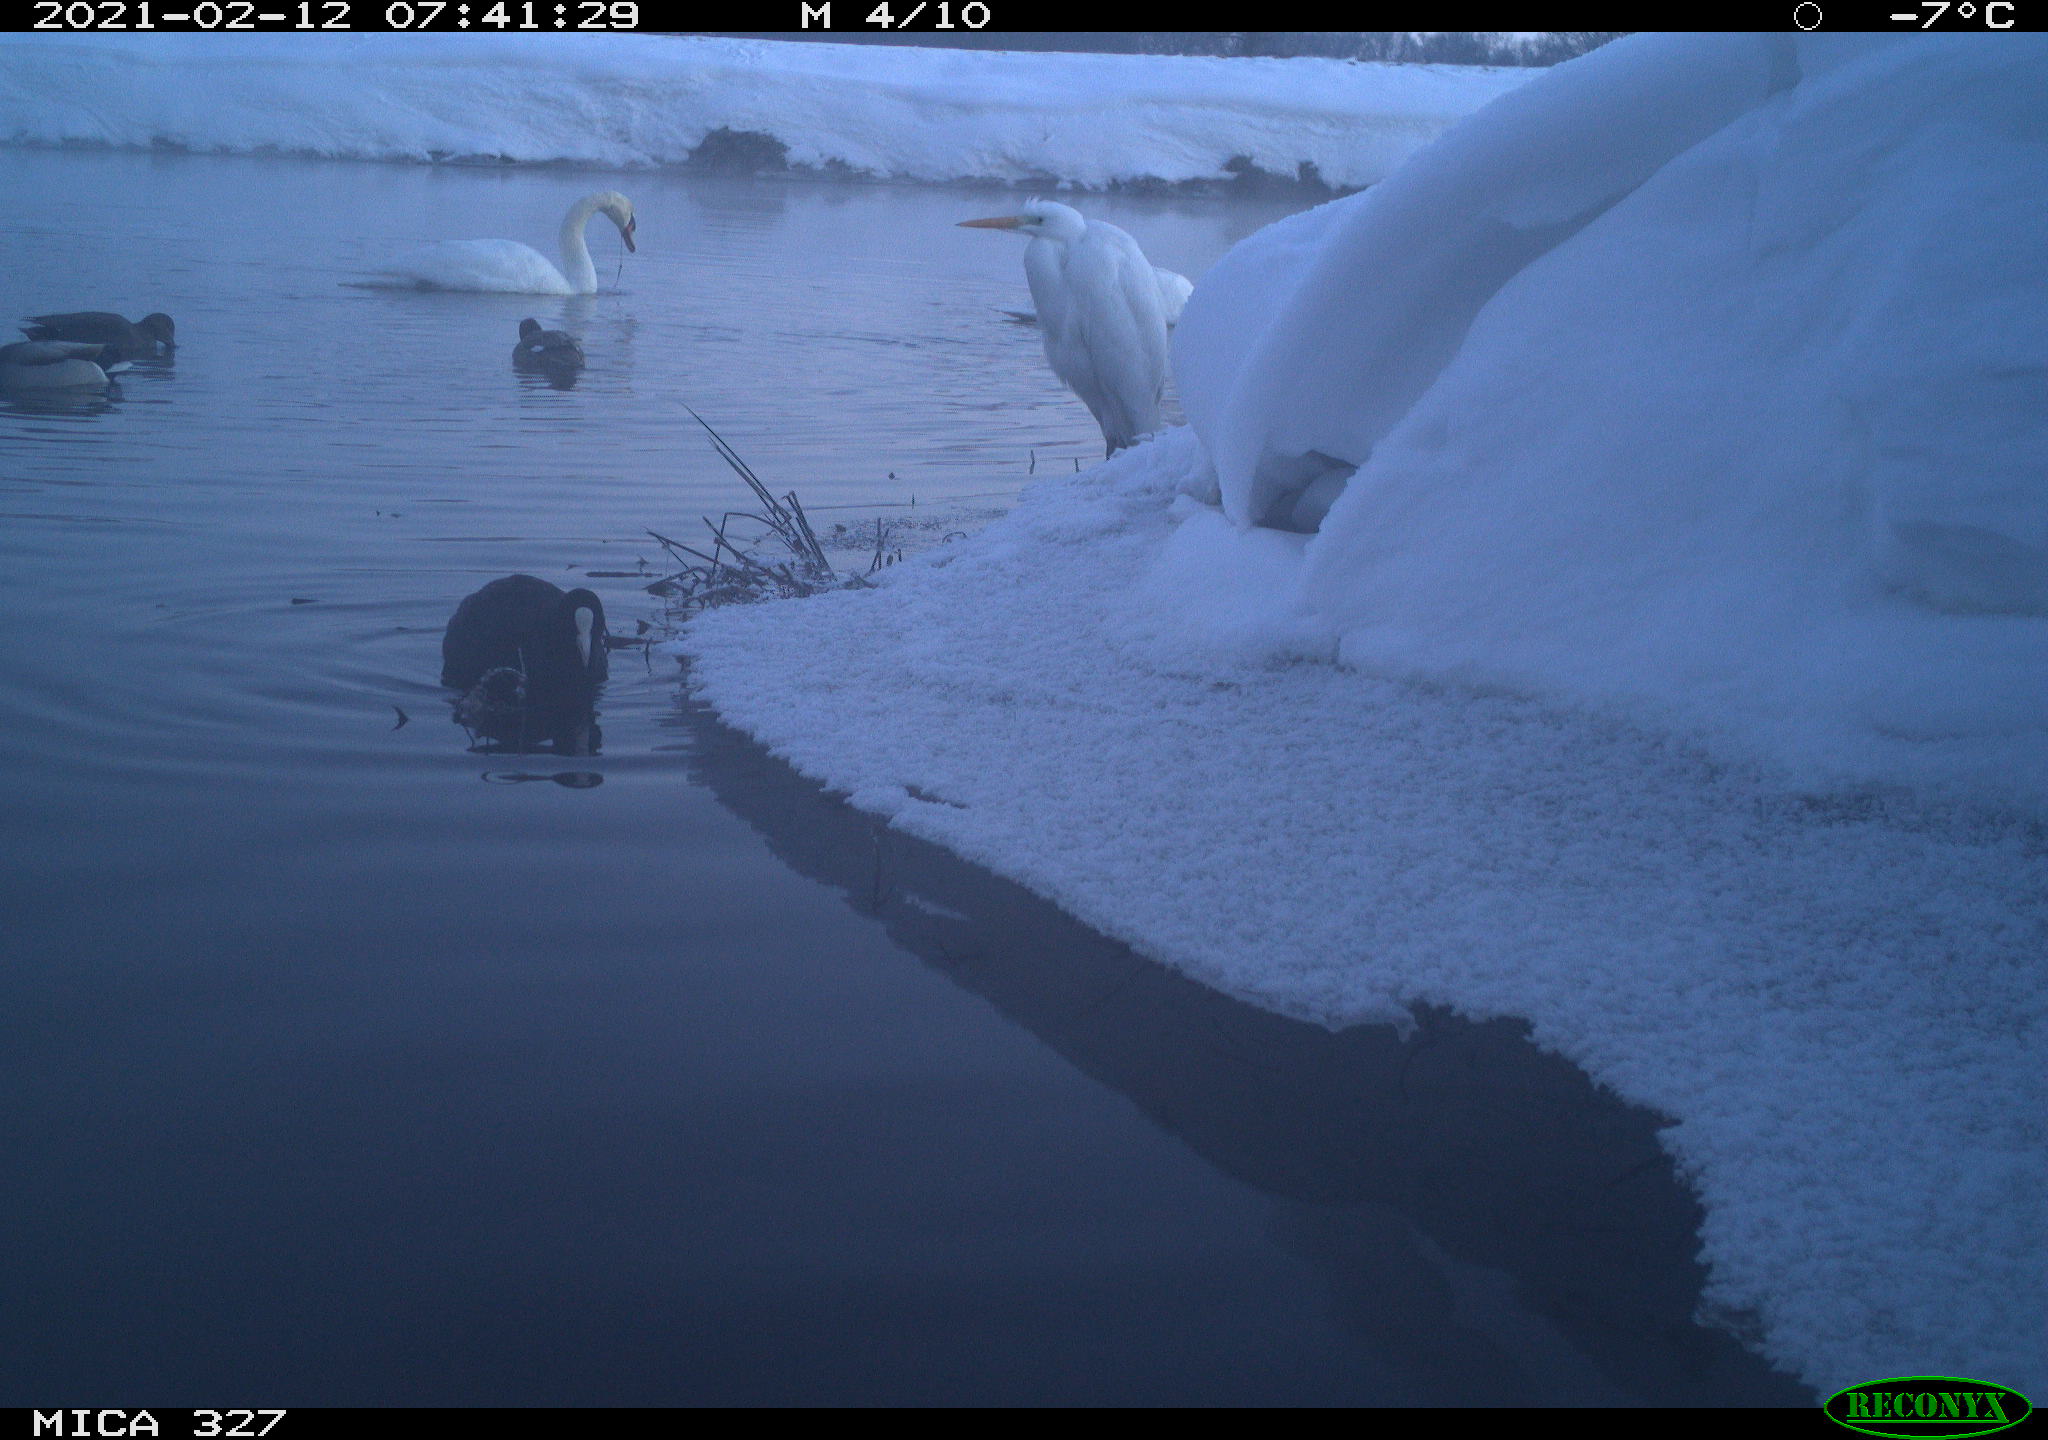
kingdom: Animalia
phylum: Chordata
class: Aves
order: Anseriformes
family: Anatidae
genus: Cygnus
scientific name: Cygnus olor
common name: Mute swan
